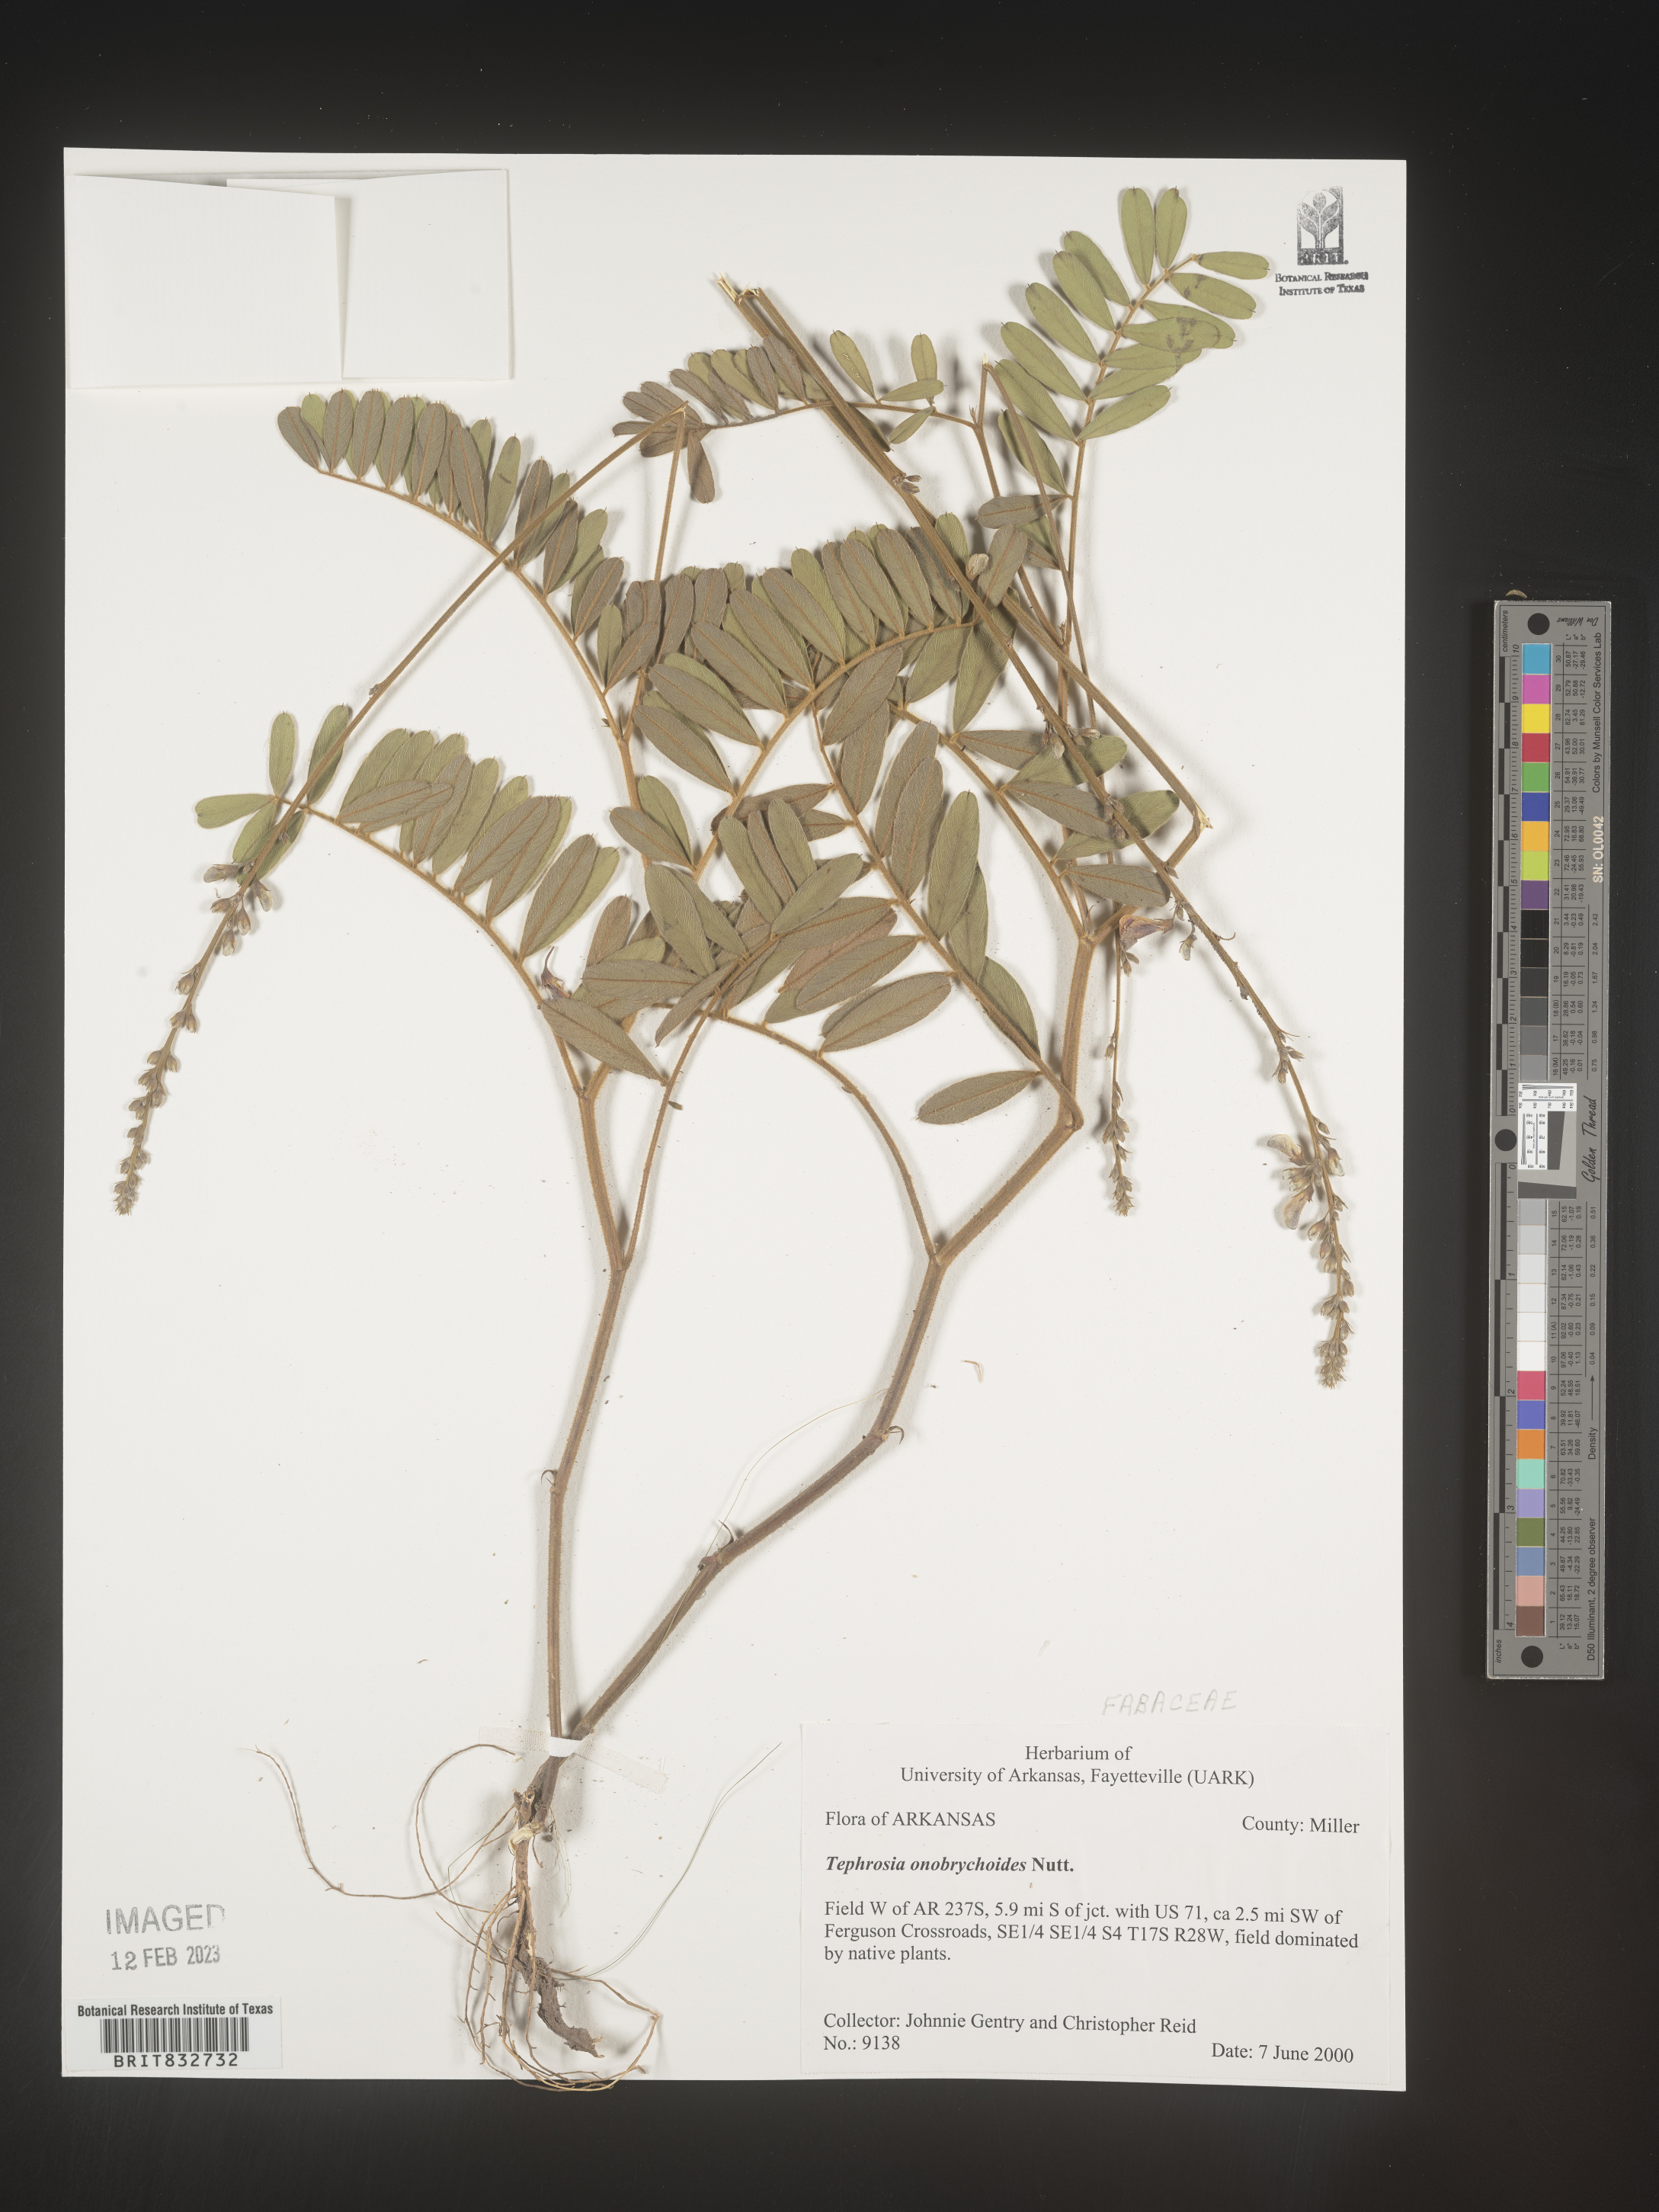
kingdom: Plantae
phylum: Tracheophyta
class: Magnoliopsida
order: Fabales
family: Fabaceae
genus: Tephrosia
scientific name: Tephrosia onobrychoides
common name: Multi-bloom hoary-pea
